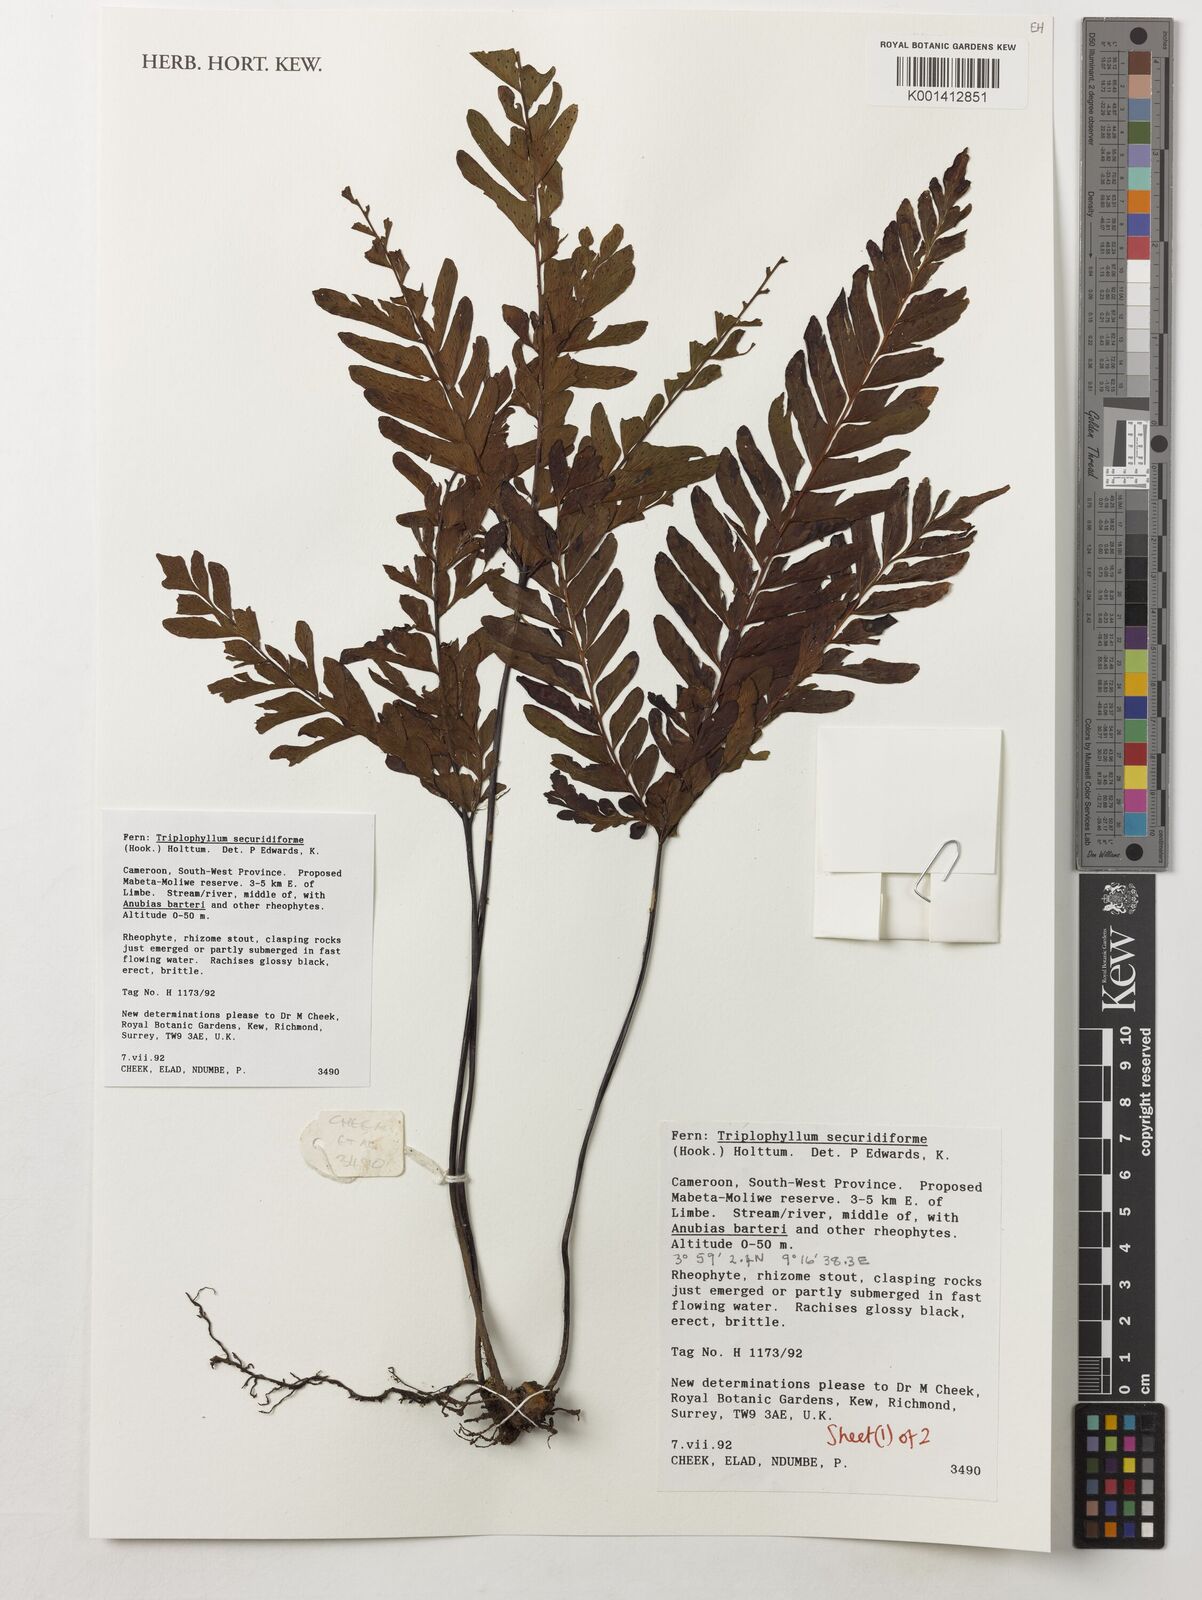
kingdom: Plantae
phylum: Tracheophyta
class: Polypodiopsida
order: Polypodiales
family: Tectariaceae
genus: Triplophyllum
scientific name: Triplophyllum securidiforme
